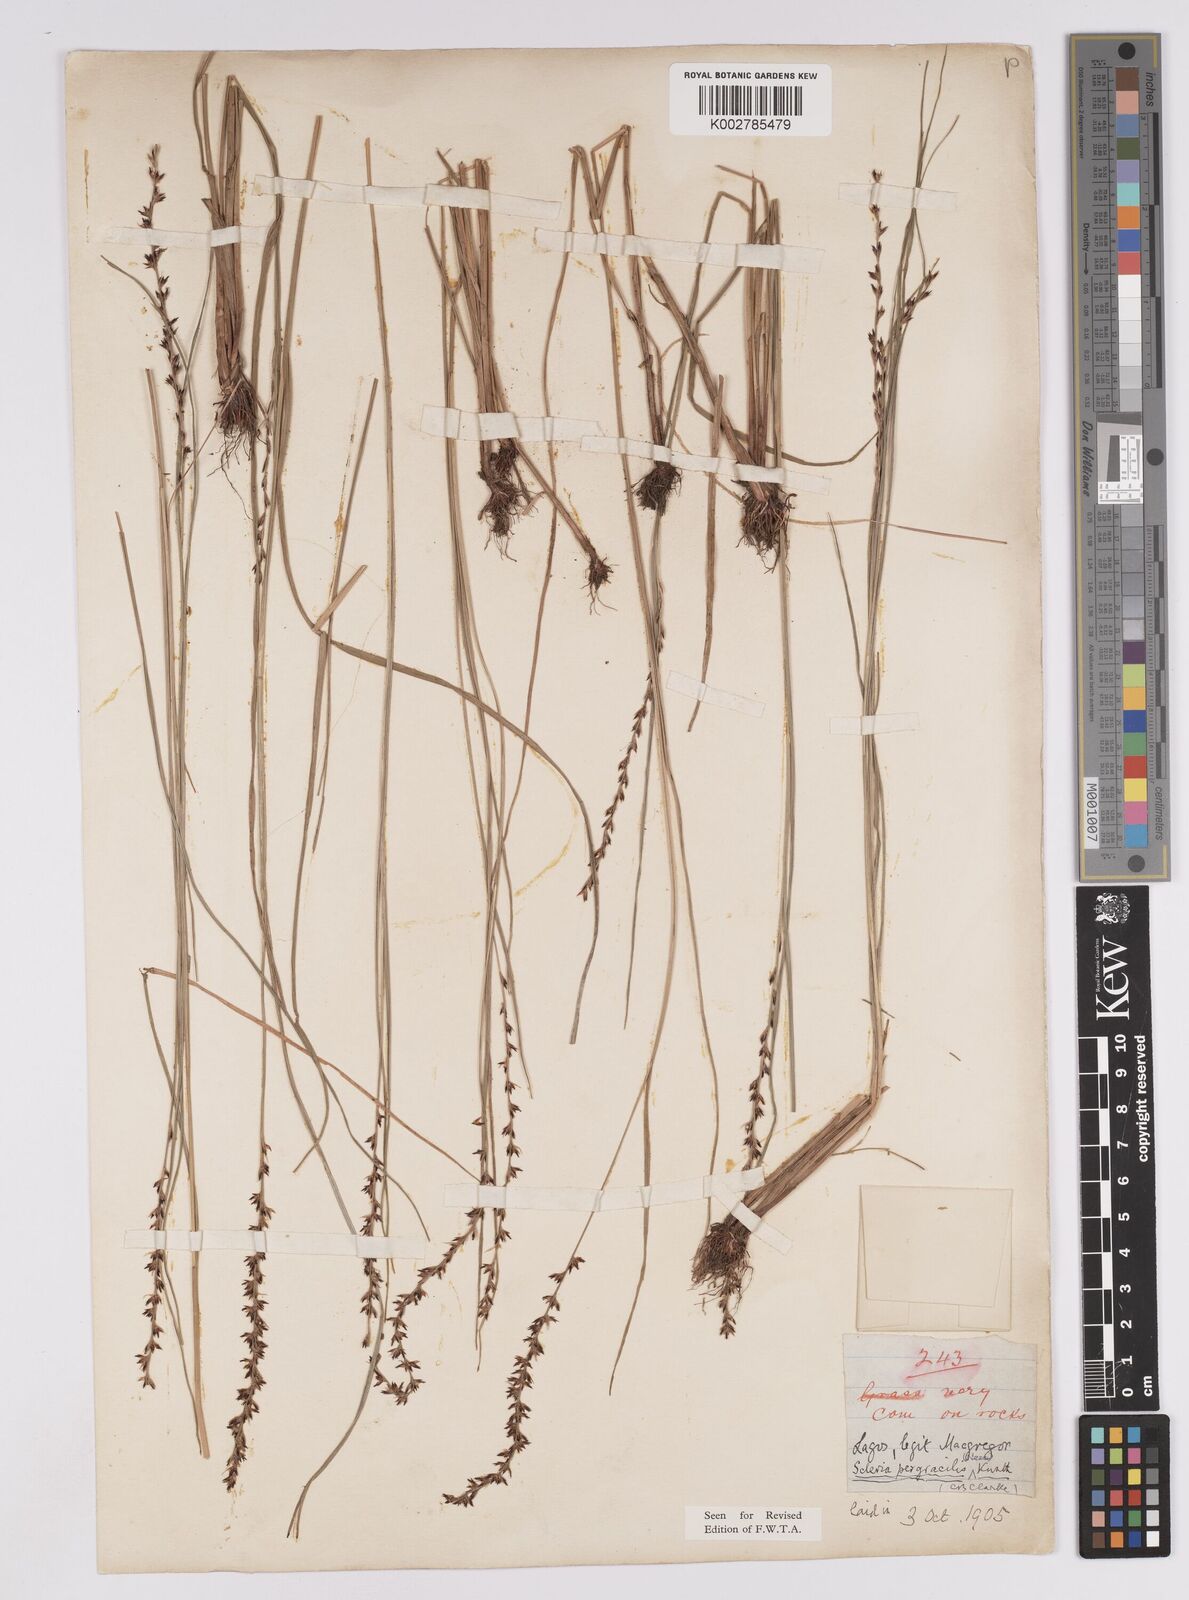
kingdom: Plantae
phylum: Tracheophyta
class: Liliopsida
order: Poales
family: Cyperaceae
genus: Scleria
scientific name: Scleria pergracilis
